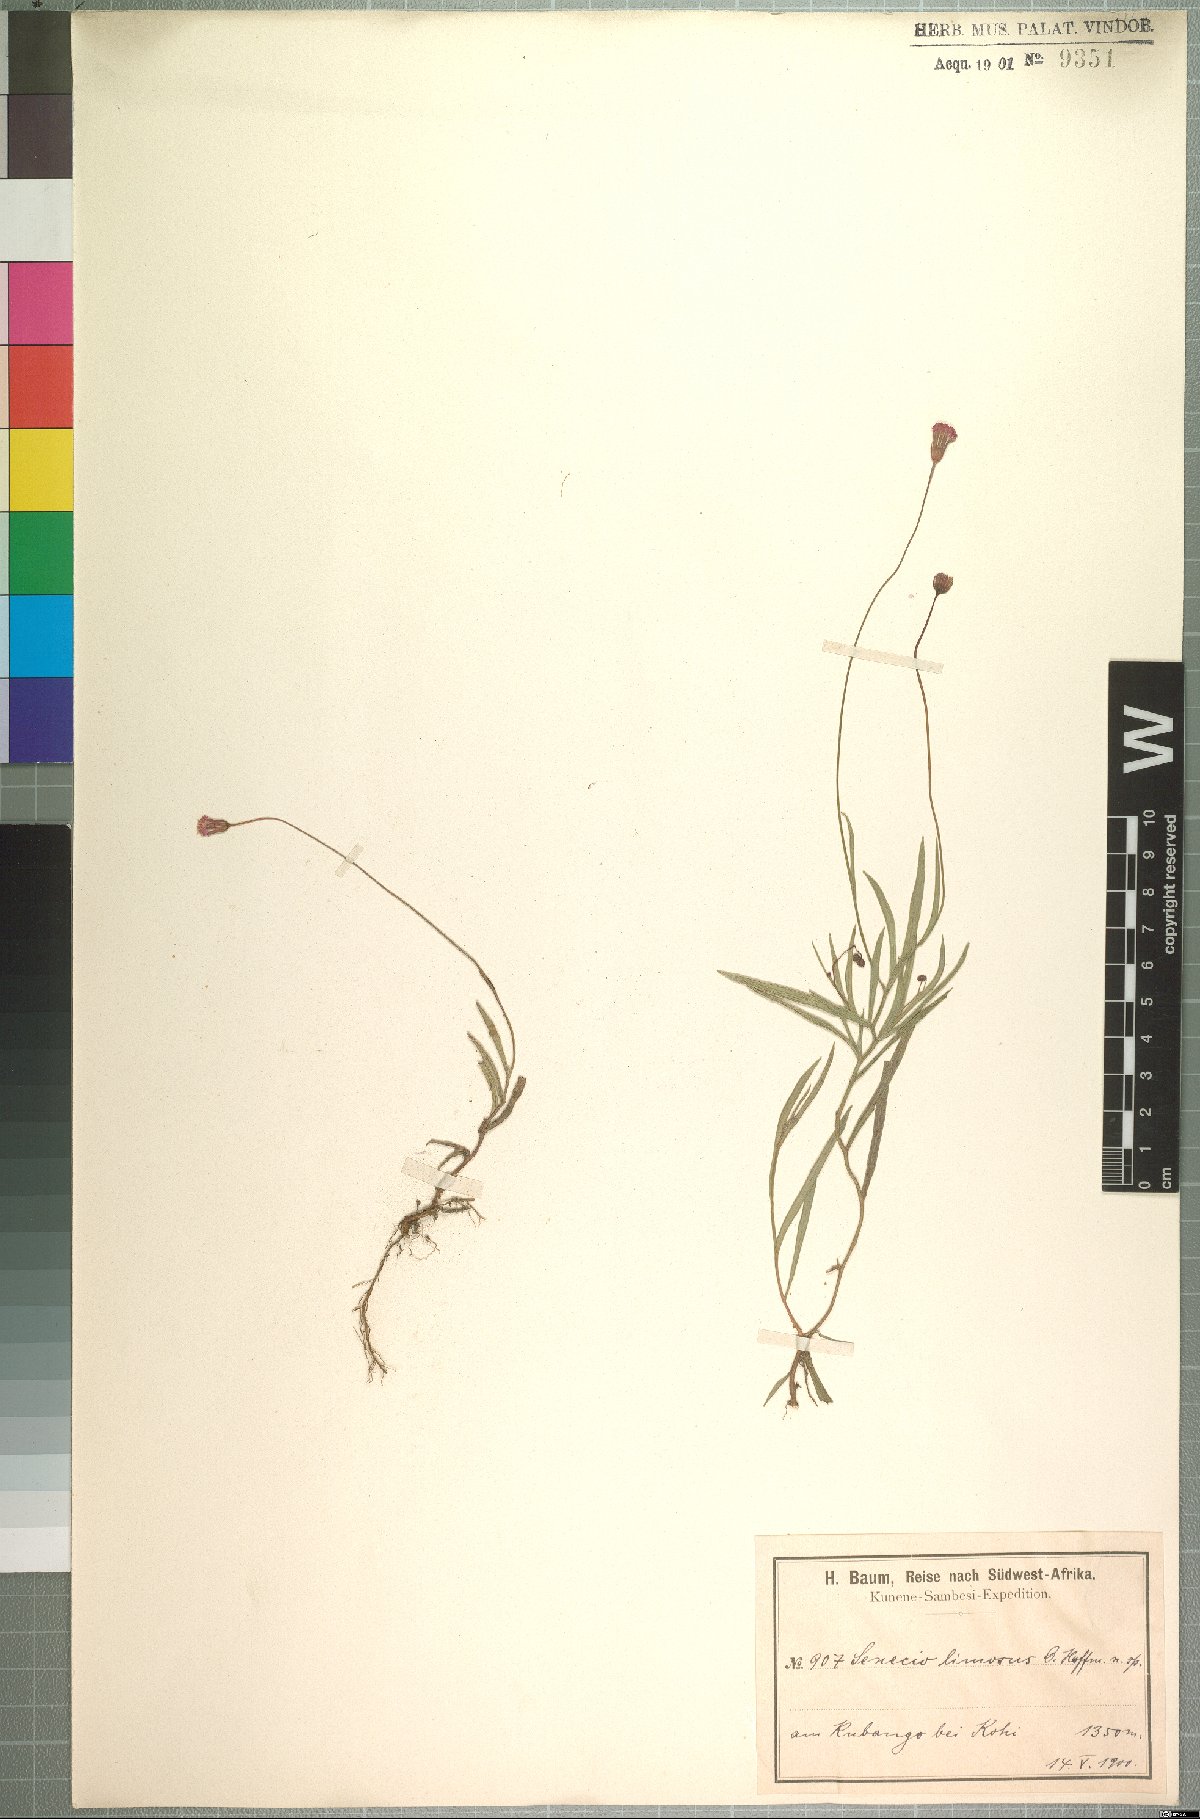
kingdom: Plantae
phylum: Tracheophyta
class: Magnoliopsida
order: Asterales
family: Asteraceae
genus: Emilia
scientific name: Emilia limosa
